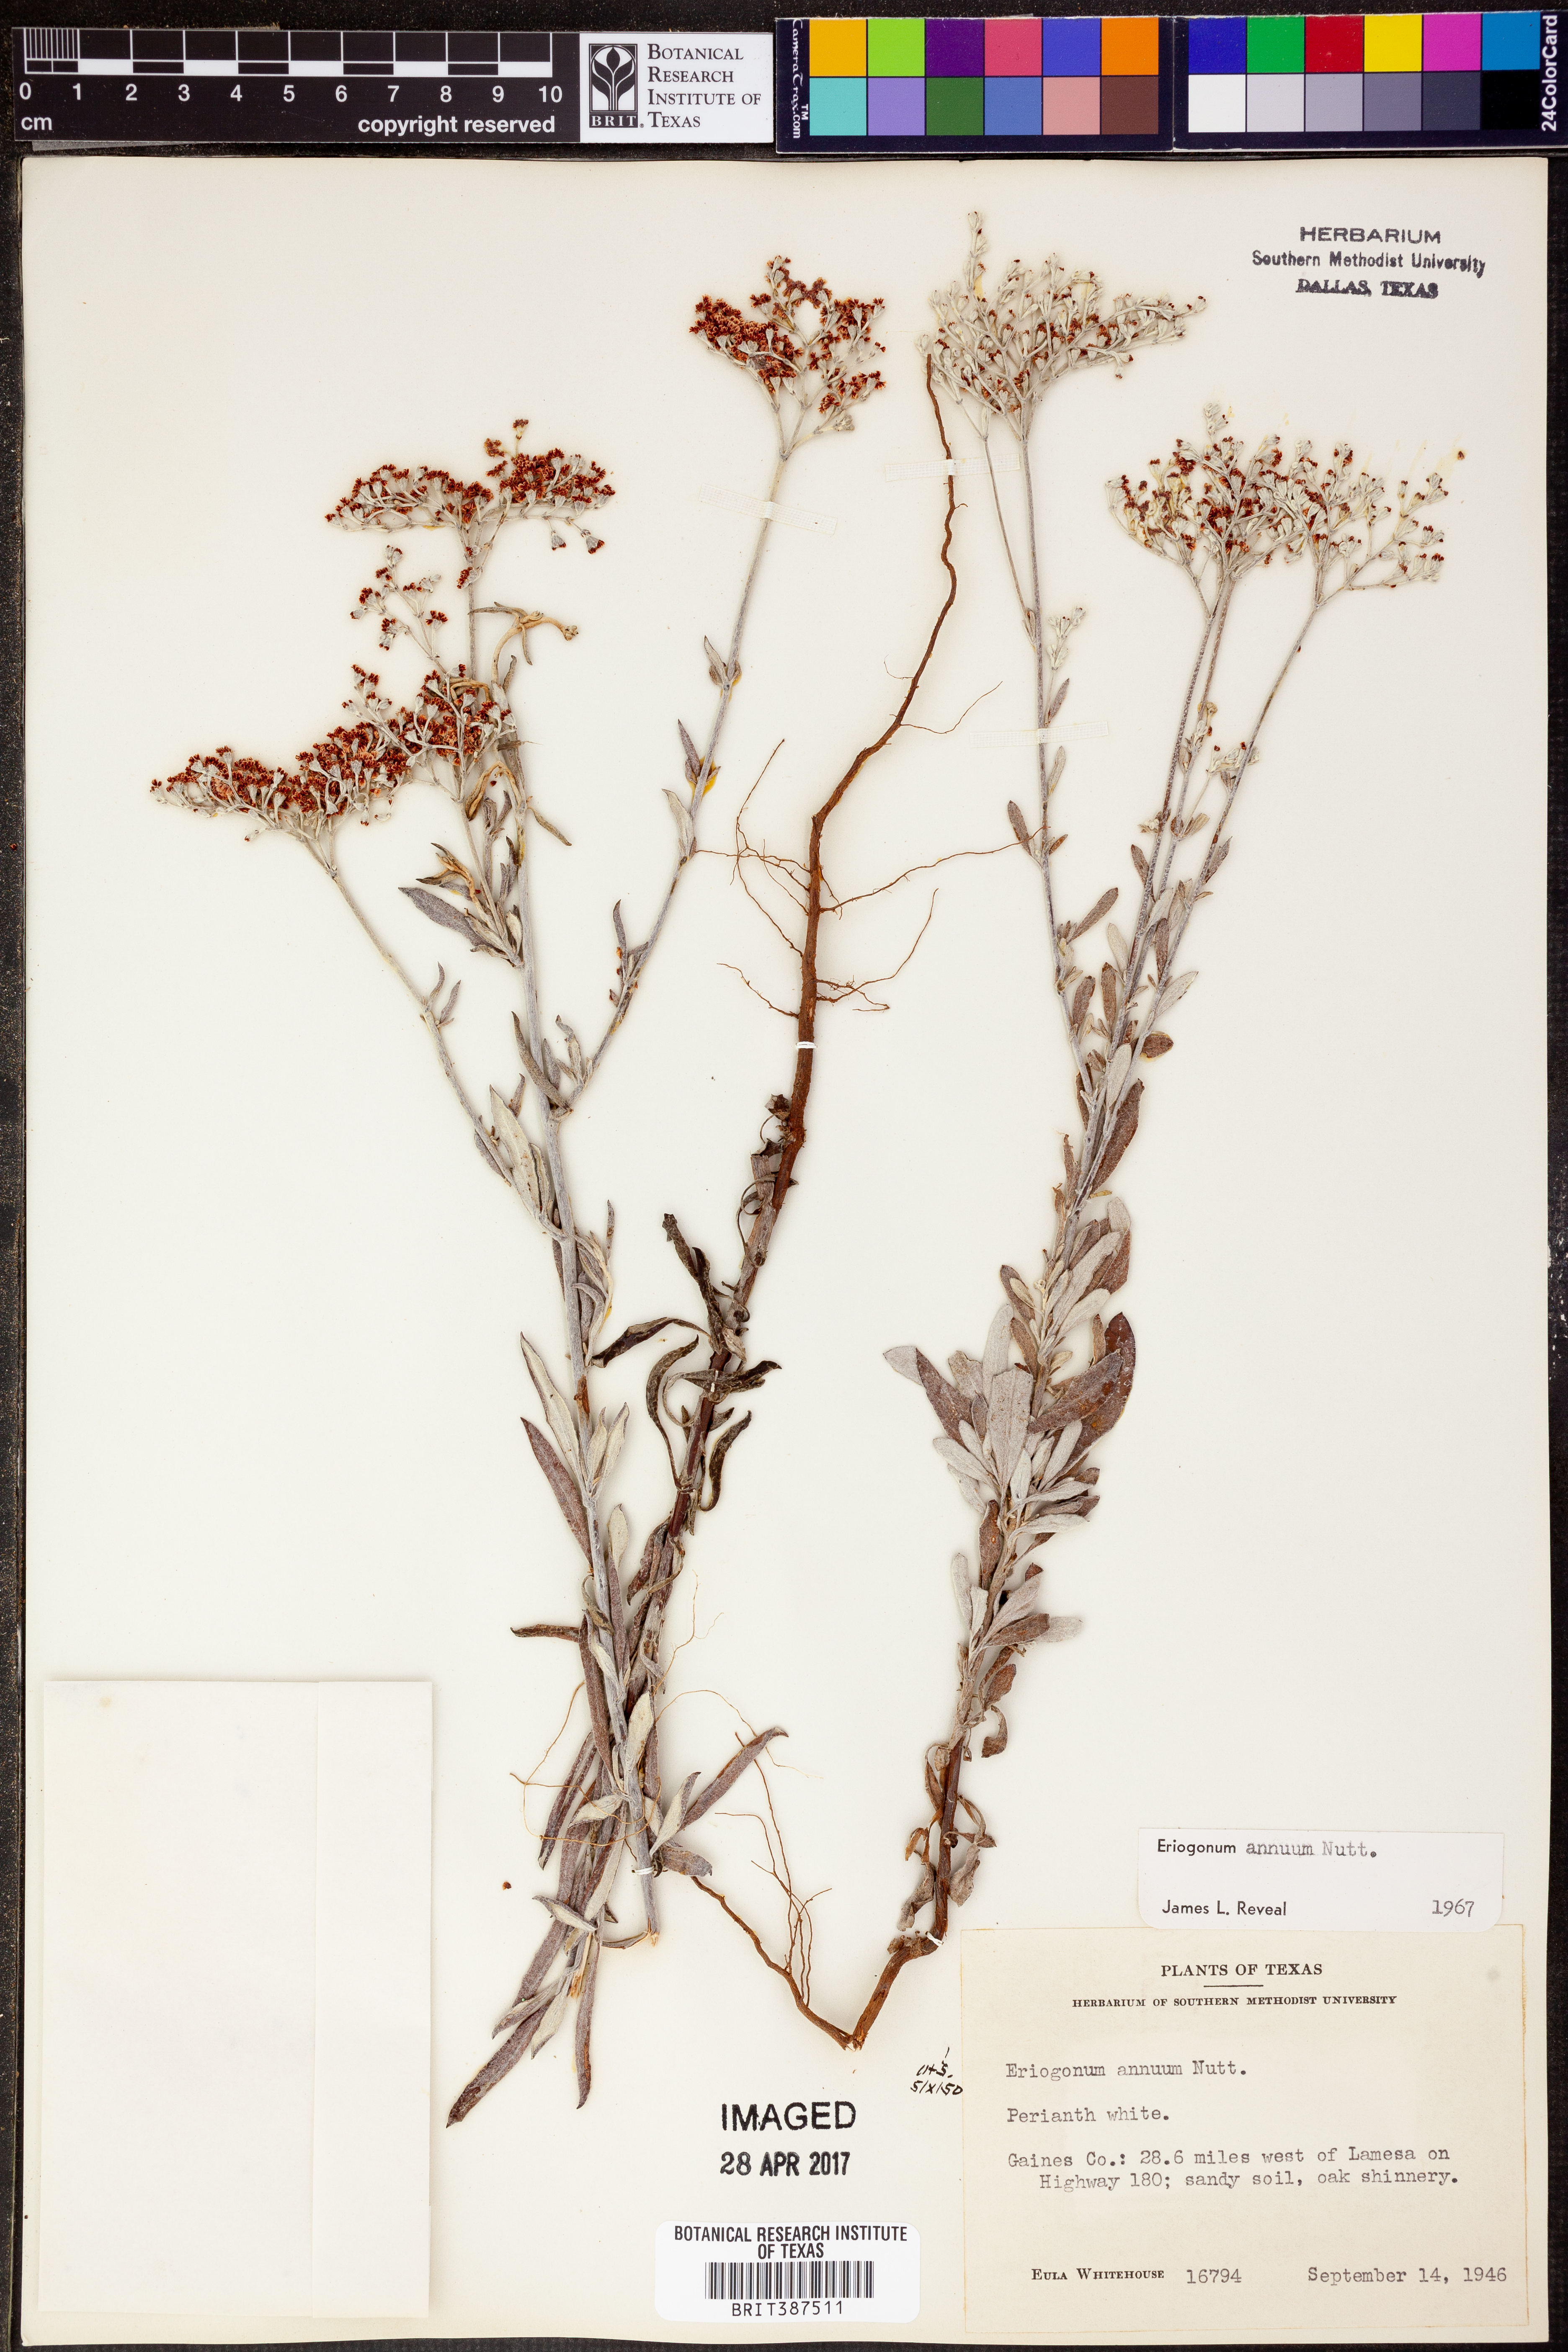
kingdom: Plantae
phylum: Tracheophyta
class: Magnoliopsida
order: Caryophyllales
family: Polygonaceae
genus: Eriogonum
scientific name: Eriogonum annuum
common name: Annual wild buckwheat
